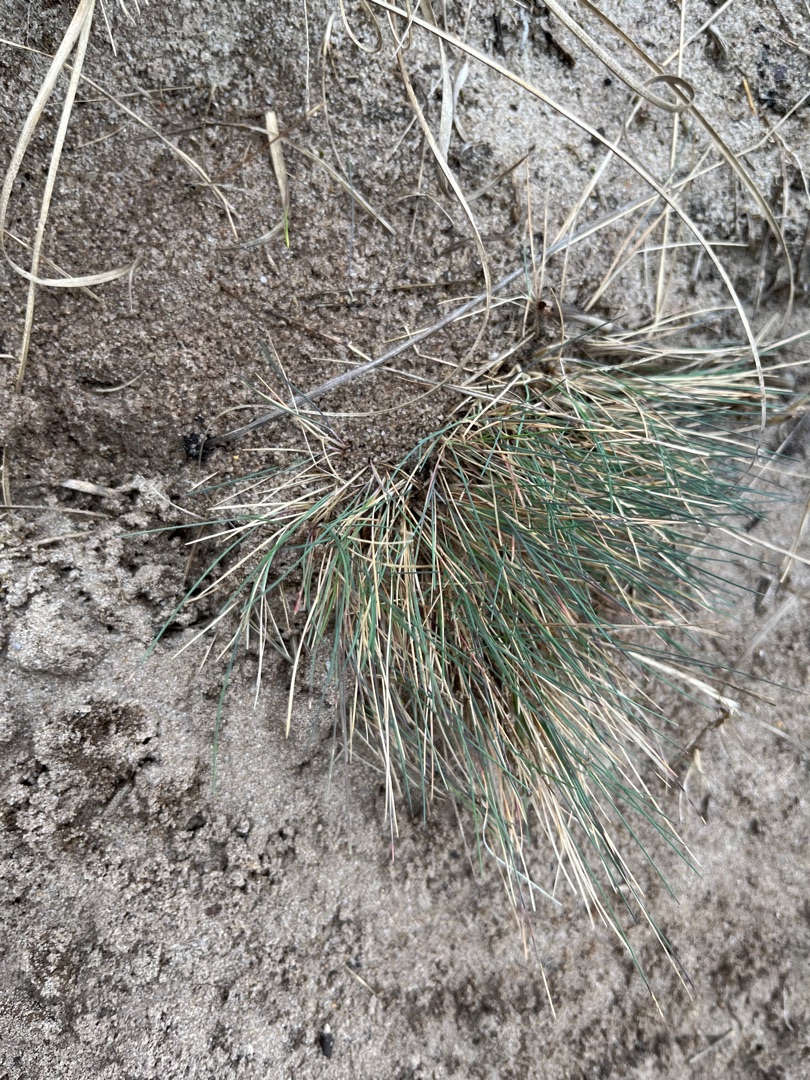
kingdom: Plantae
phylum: Tracheophyta
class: Liliopsida
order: Poales
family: Poaceae
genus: Corynephorus
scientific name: Corynephorus canescens
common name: Sandskæg
